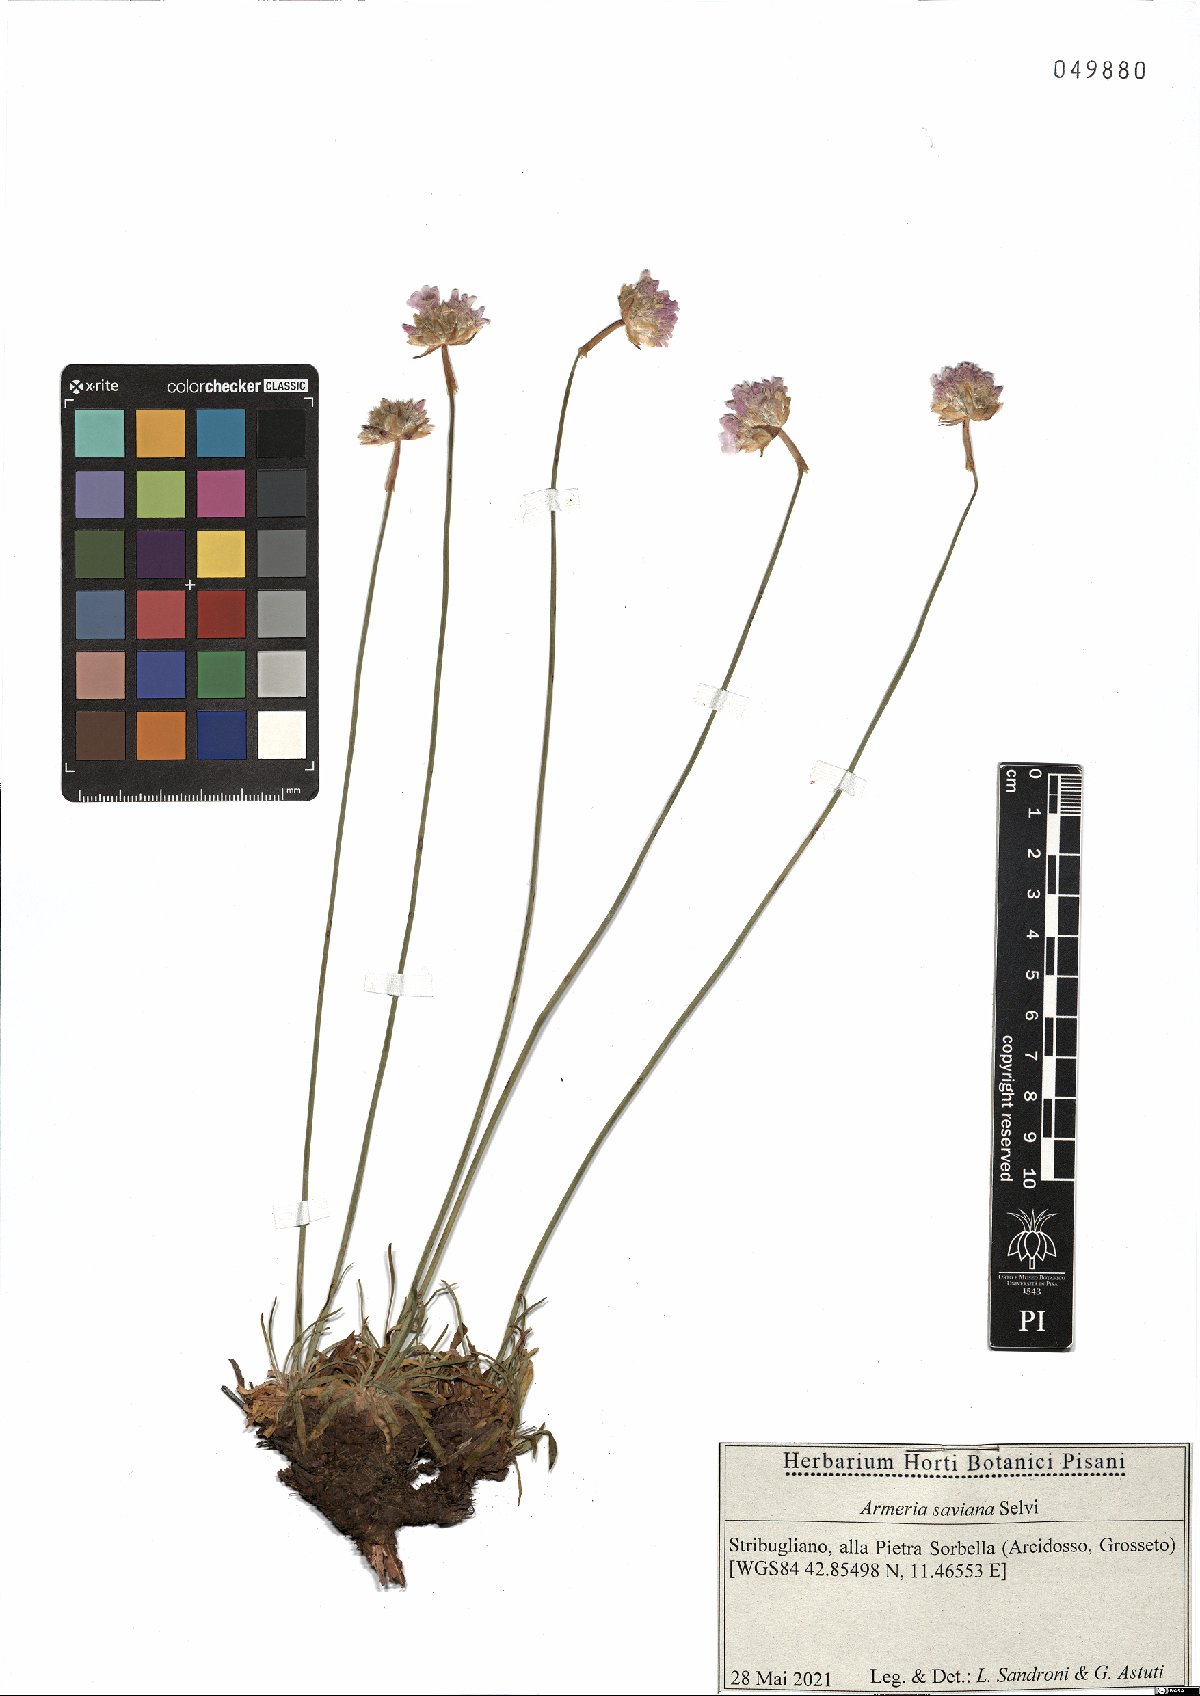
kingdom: Plantae
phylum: Tracheophyta
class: Magnoliopsida
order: Caryophyllales
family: Plumbaginaceae
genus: Armeria
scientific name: Armeria saviana
